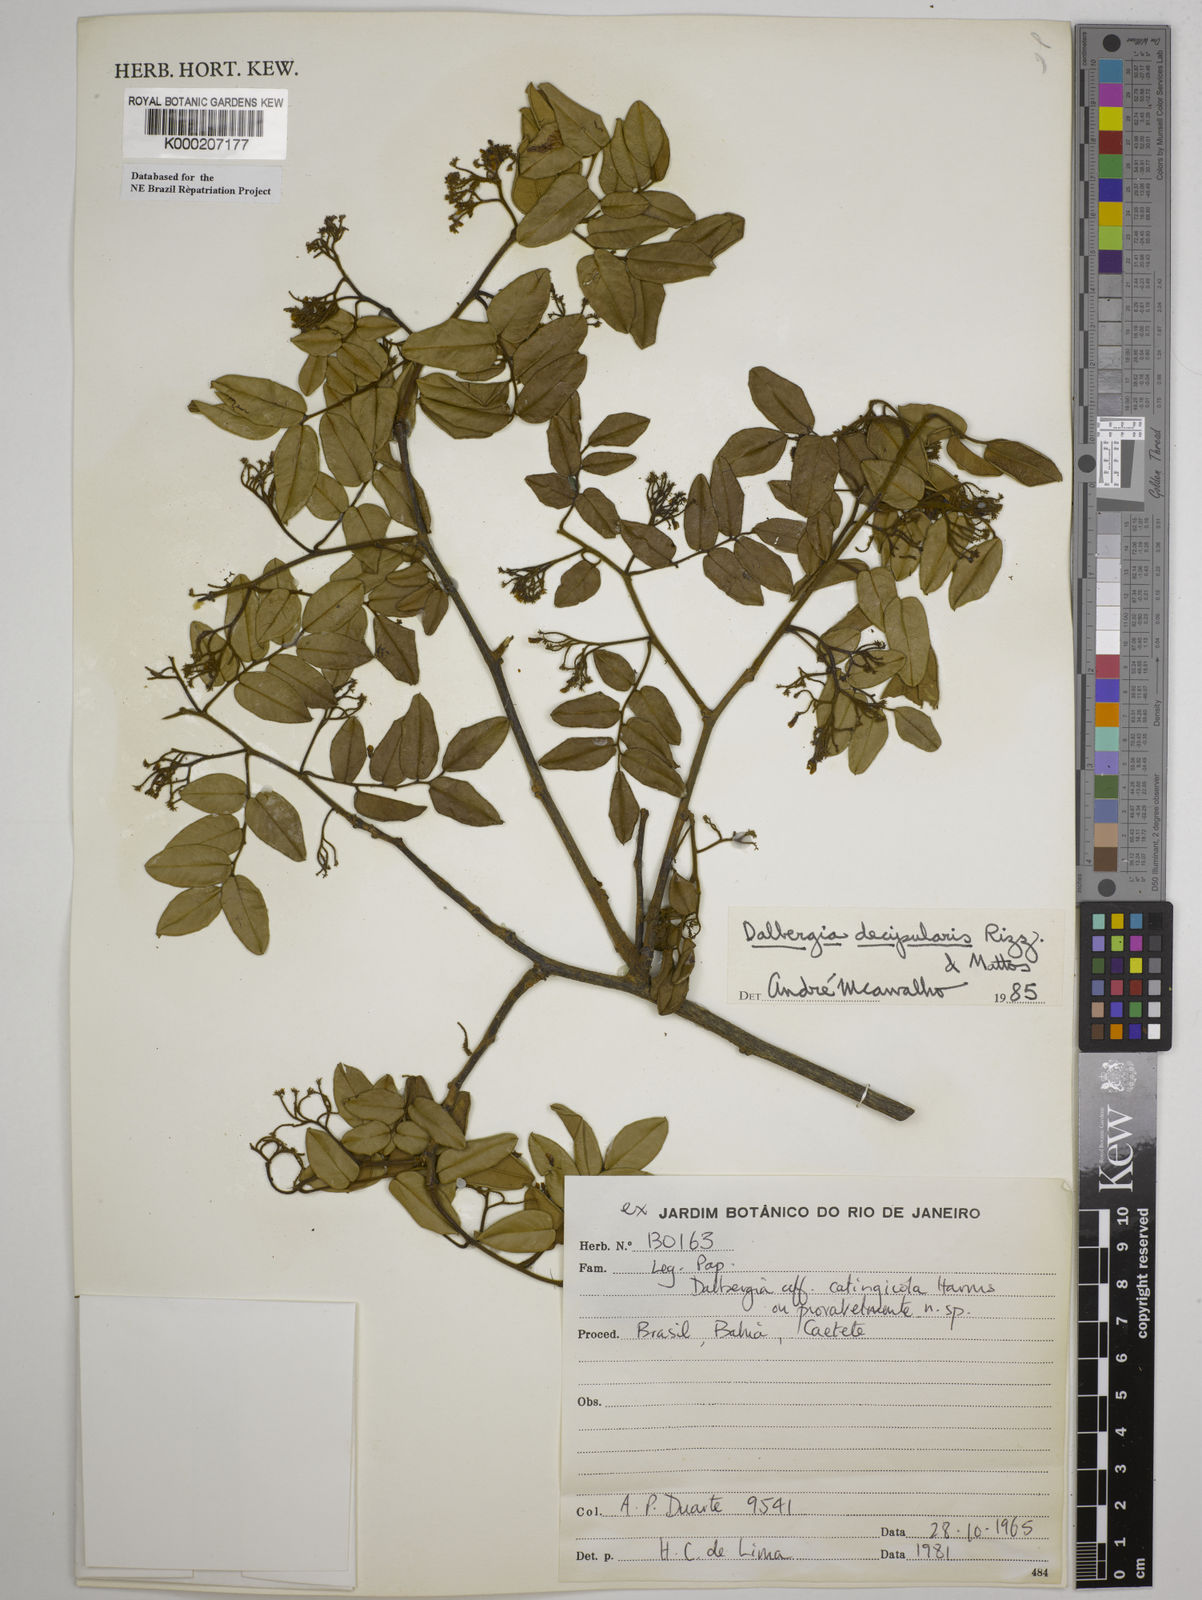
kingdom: Plantae
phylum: Tracheophyta
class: Magnoliopsida
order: Fabales
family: Fabaceae
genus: Dalbergia
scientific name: Dalbergia decipularis
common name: Brazilian tulipwood
